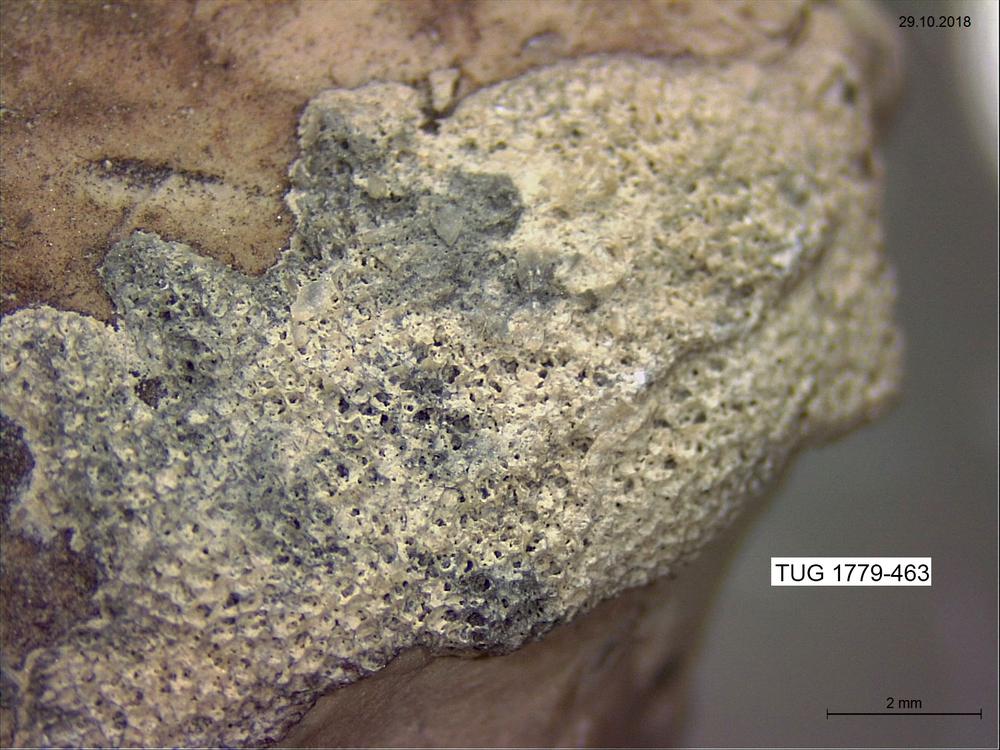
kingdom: Animalia
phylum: Bryozoa
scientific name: Bryozoa
